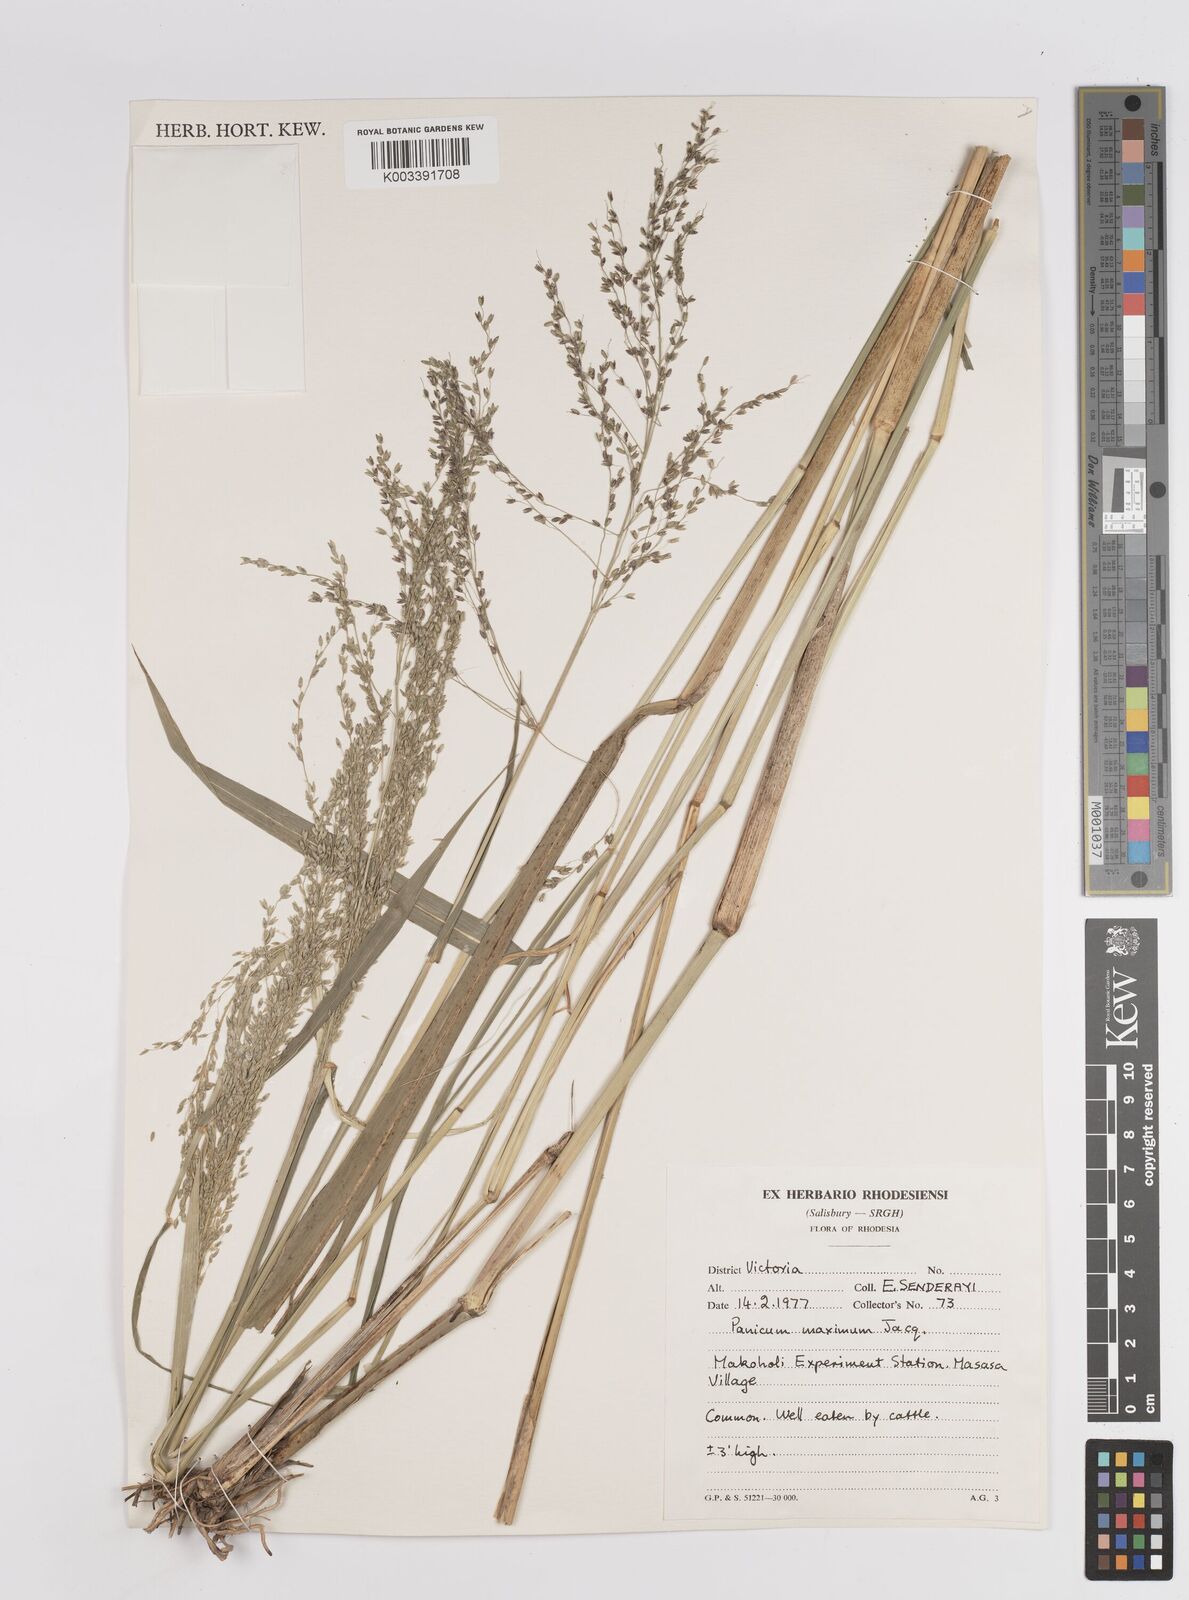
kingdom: Plantae
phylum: Tracheophyta
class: Liliopsida
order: Poales
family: Poaceae
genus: Megathyrsus
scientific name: Megathyrsus maximus
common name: Guineagrass
